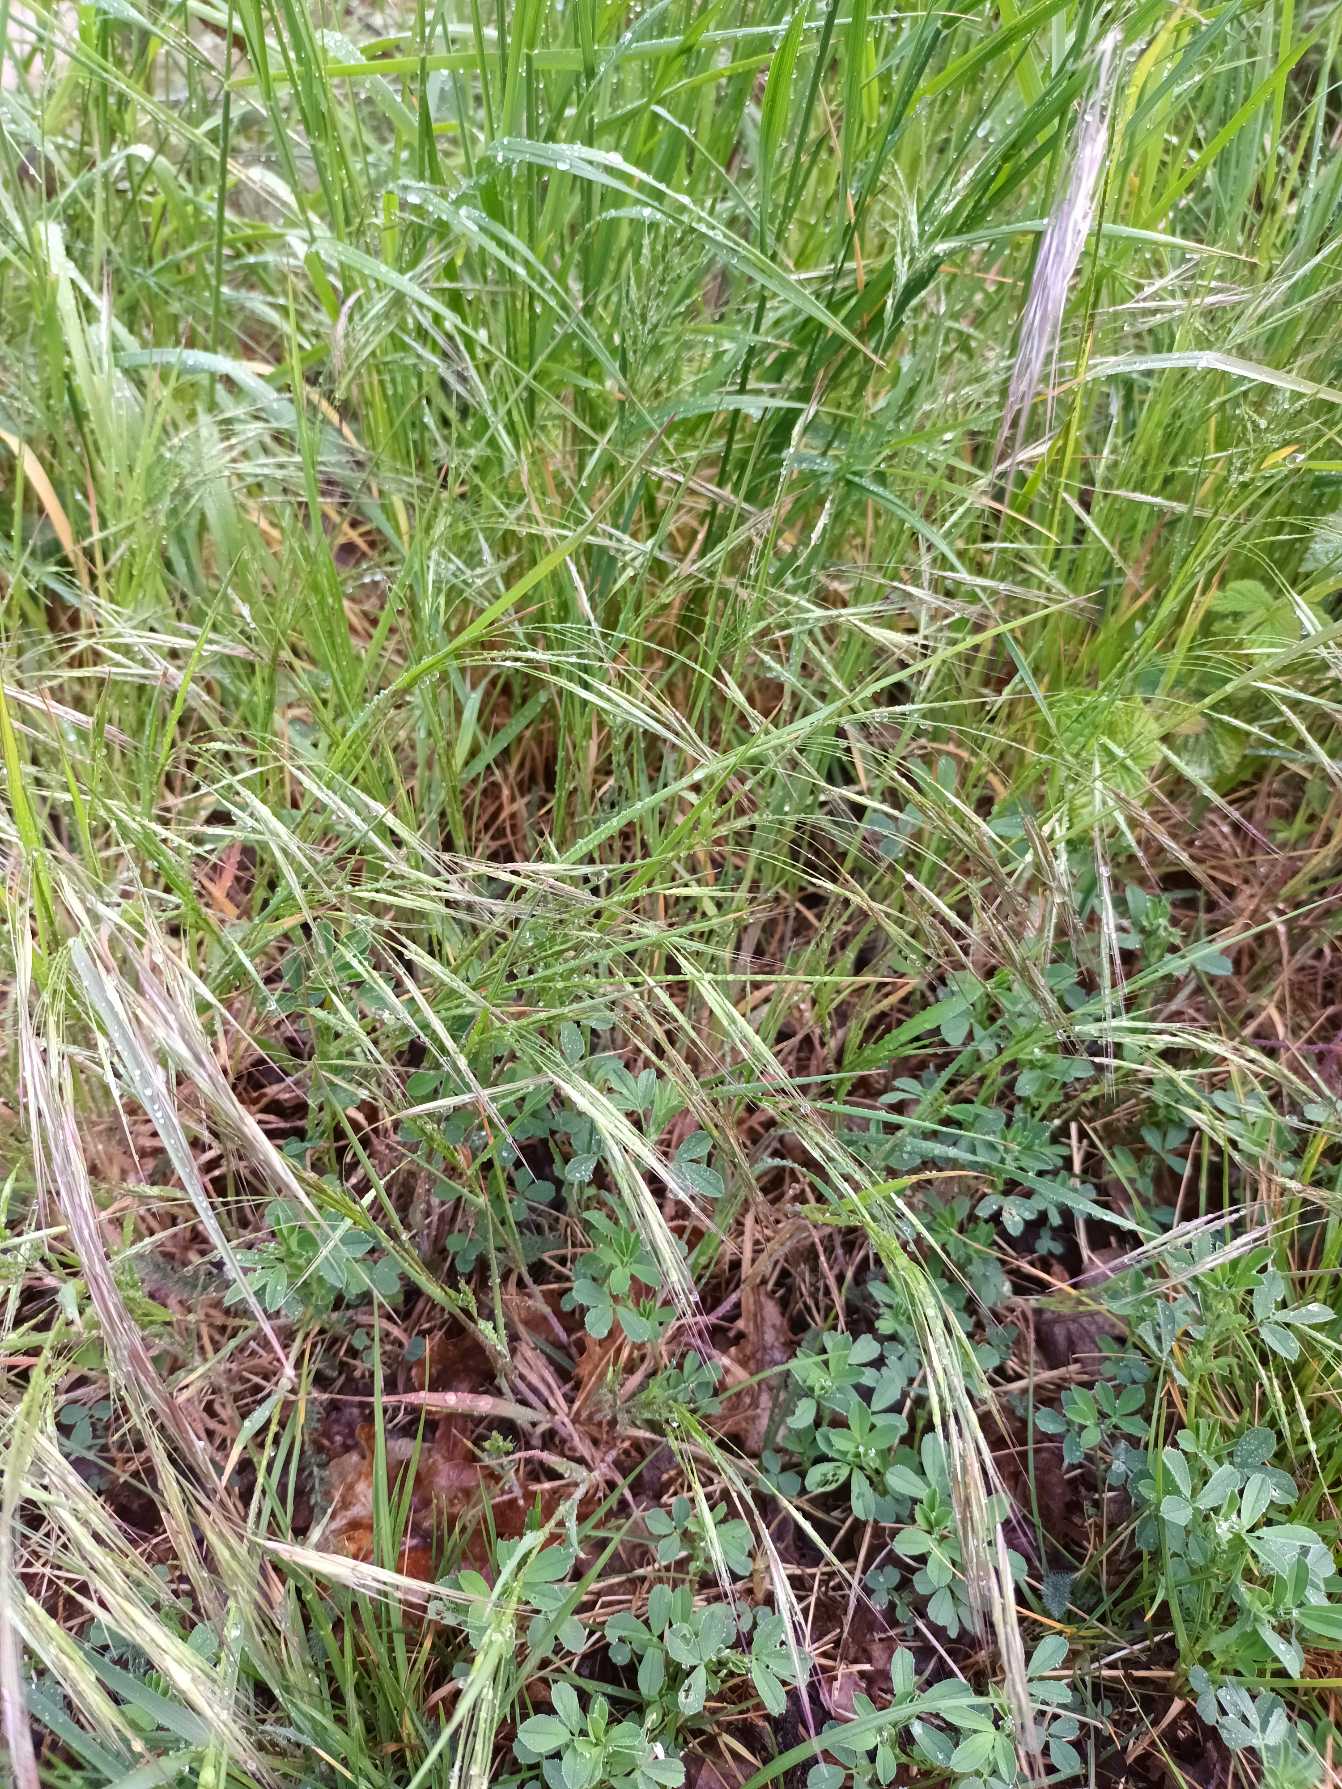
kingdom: Plantae
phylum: Tracheophyta
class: Liliopsida
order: Poales
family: Poaceae
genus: Bromus
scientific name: Bromus sterilis
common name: Gold hejre
